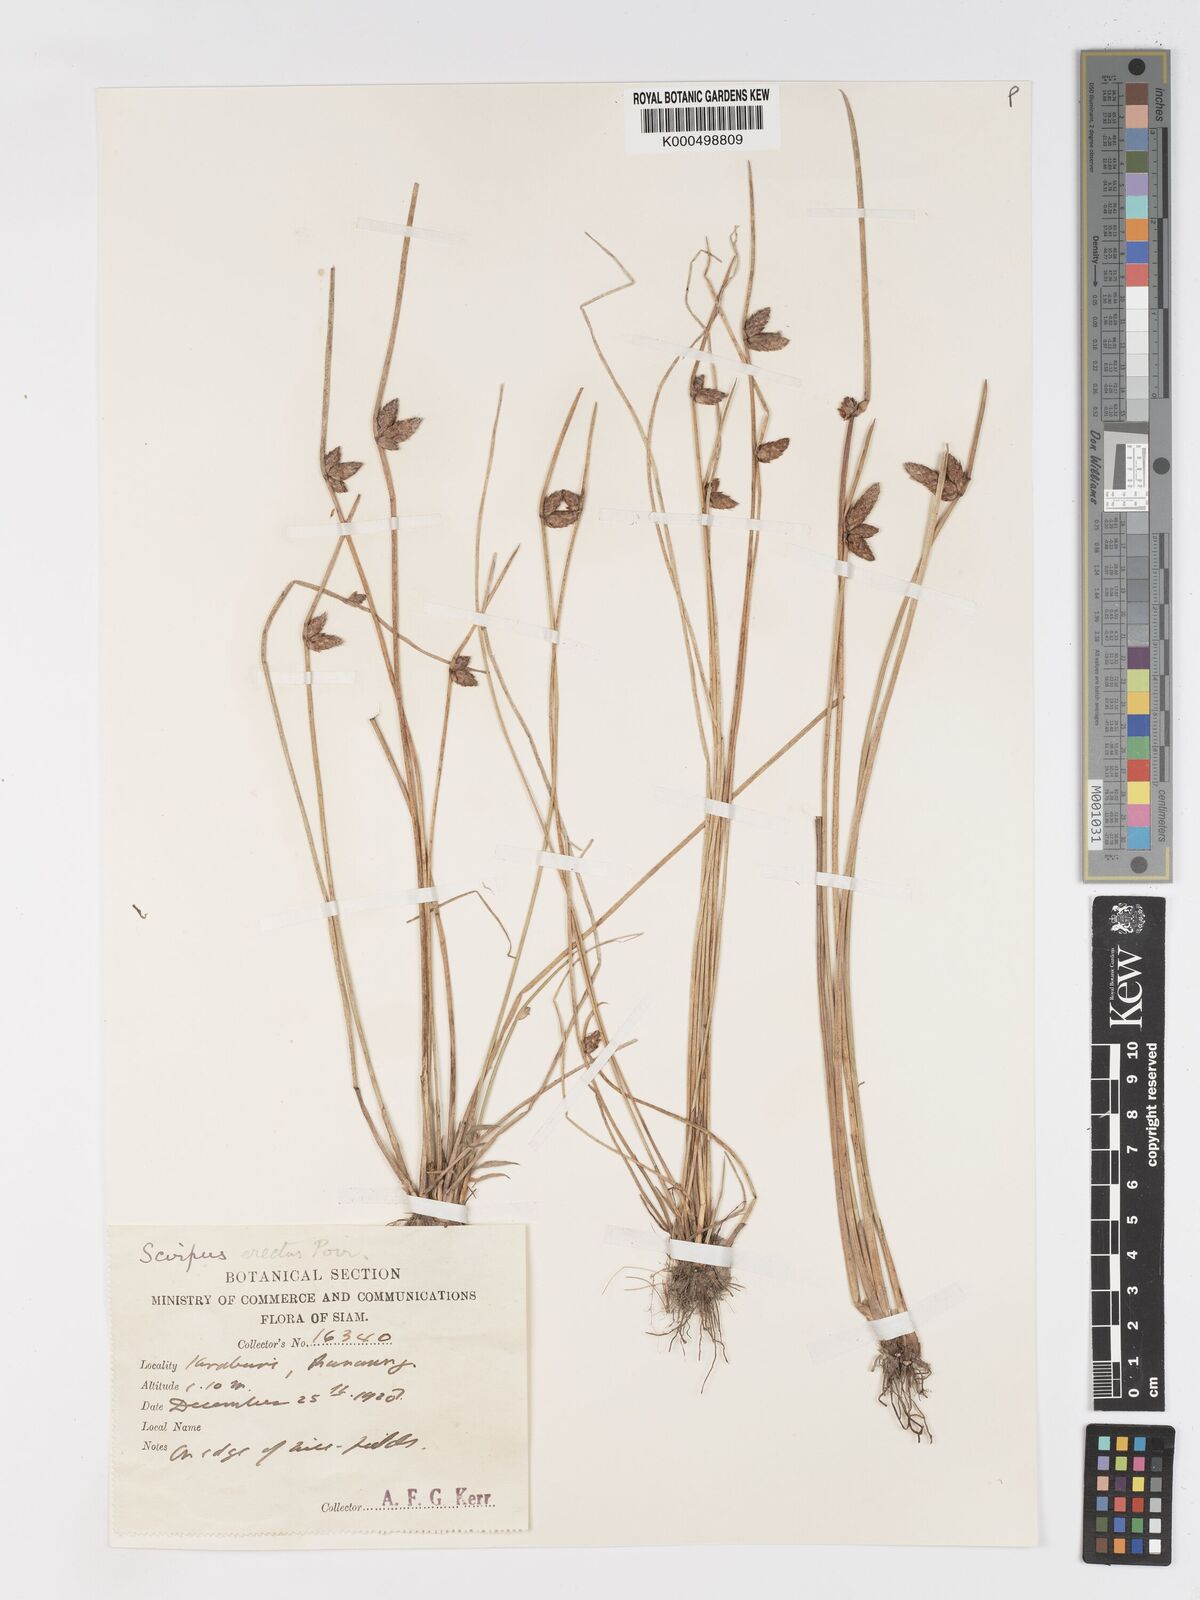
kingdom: Plantae
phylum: Tracheophyta
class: Liliopsida
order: Poales
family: Cyperaceae
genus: Schoenoplectiella
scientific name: Schoenoplectiella juncoides
